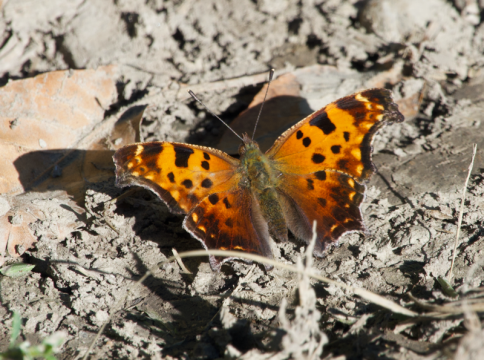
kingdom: Animalia
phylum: Arthropoda
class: Insecta
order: Lepidoptera
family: Nymphalidae
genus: Polygonia
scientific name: Polygonia comma
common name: Eastern Comma
